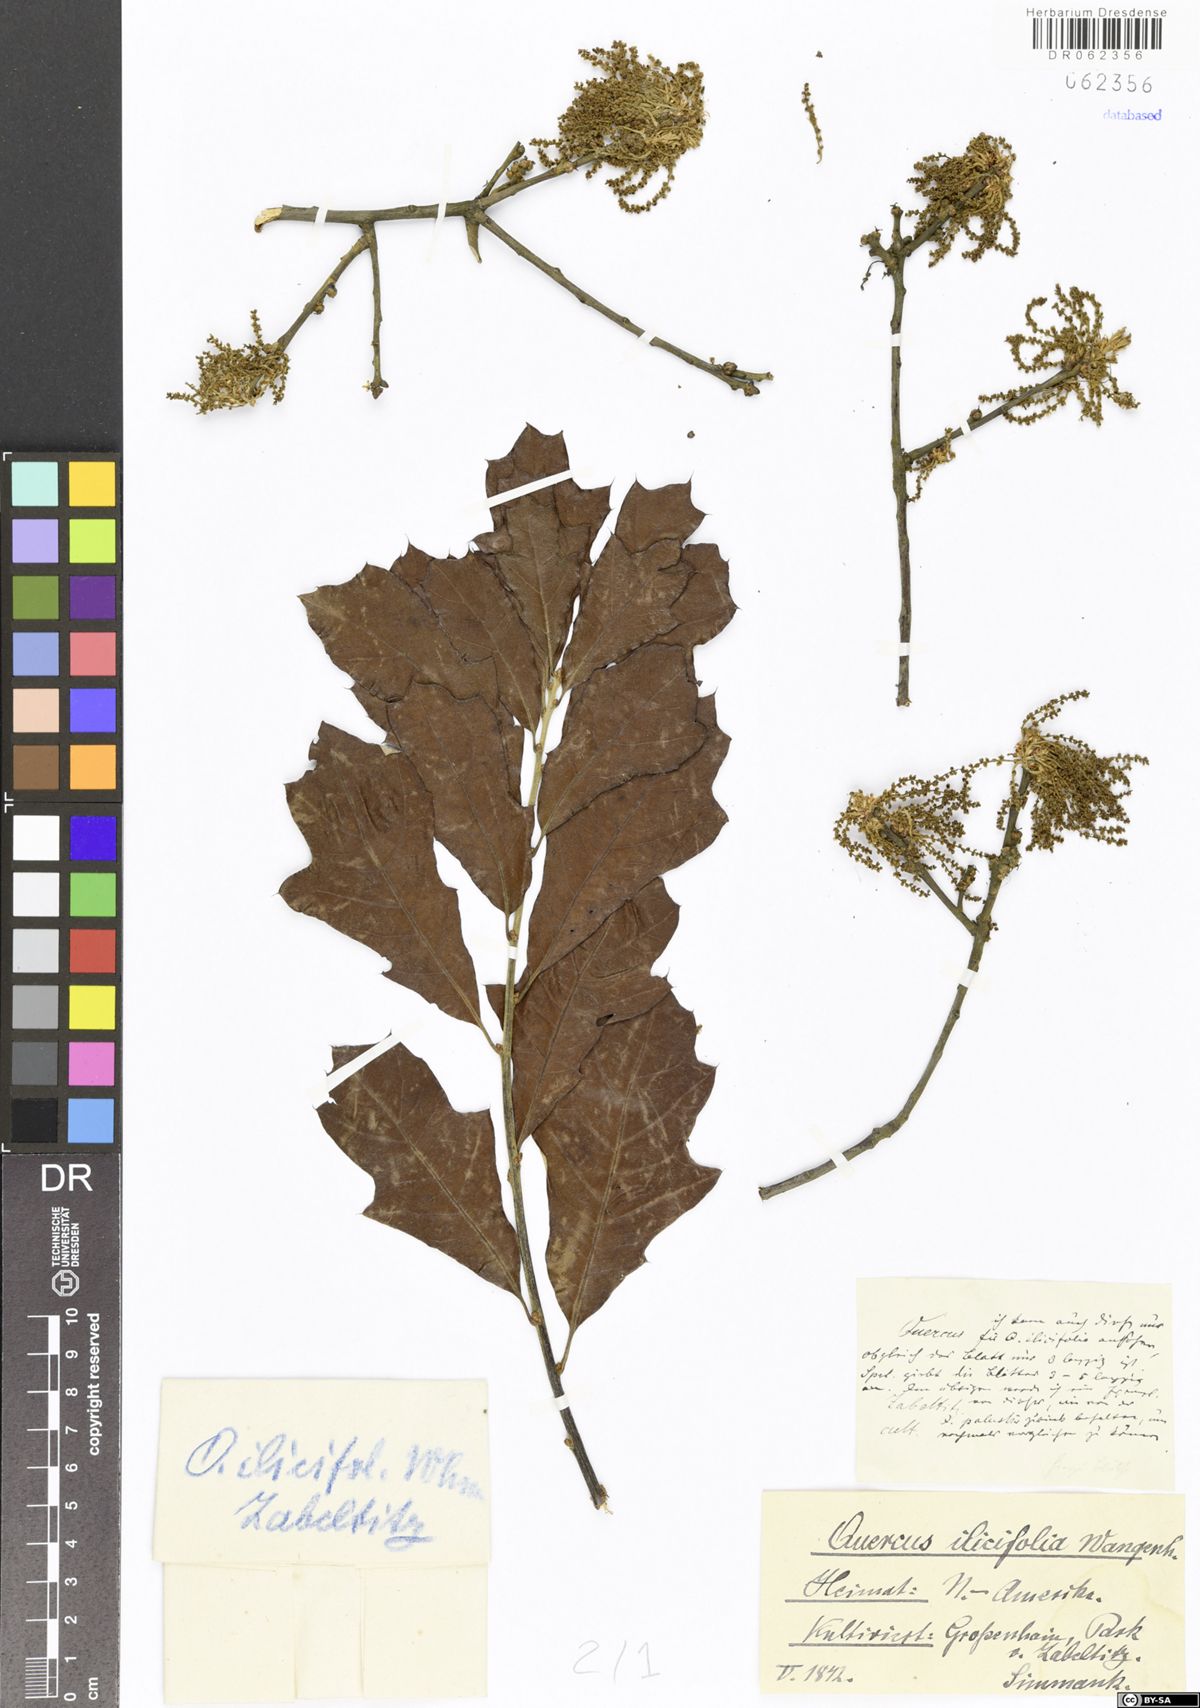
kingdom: Plantae
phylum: Tracheophyta
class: Magnoliopsida
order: Fagales
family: Fagaceae
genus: Quercus
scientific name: Quercus ilicifolia
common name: Bear oak
